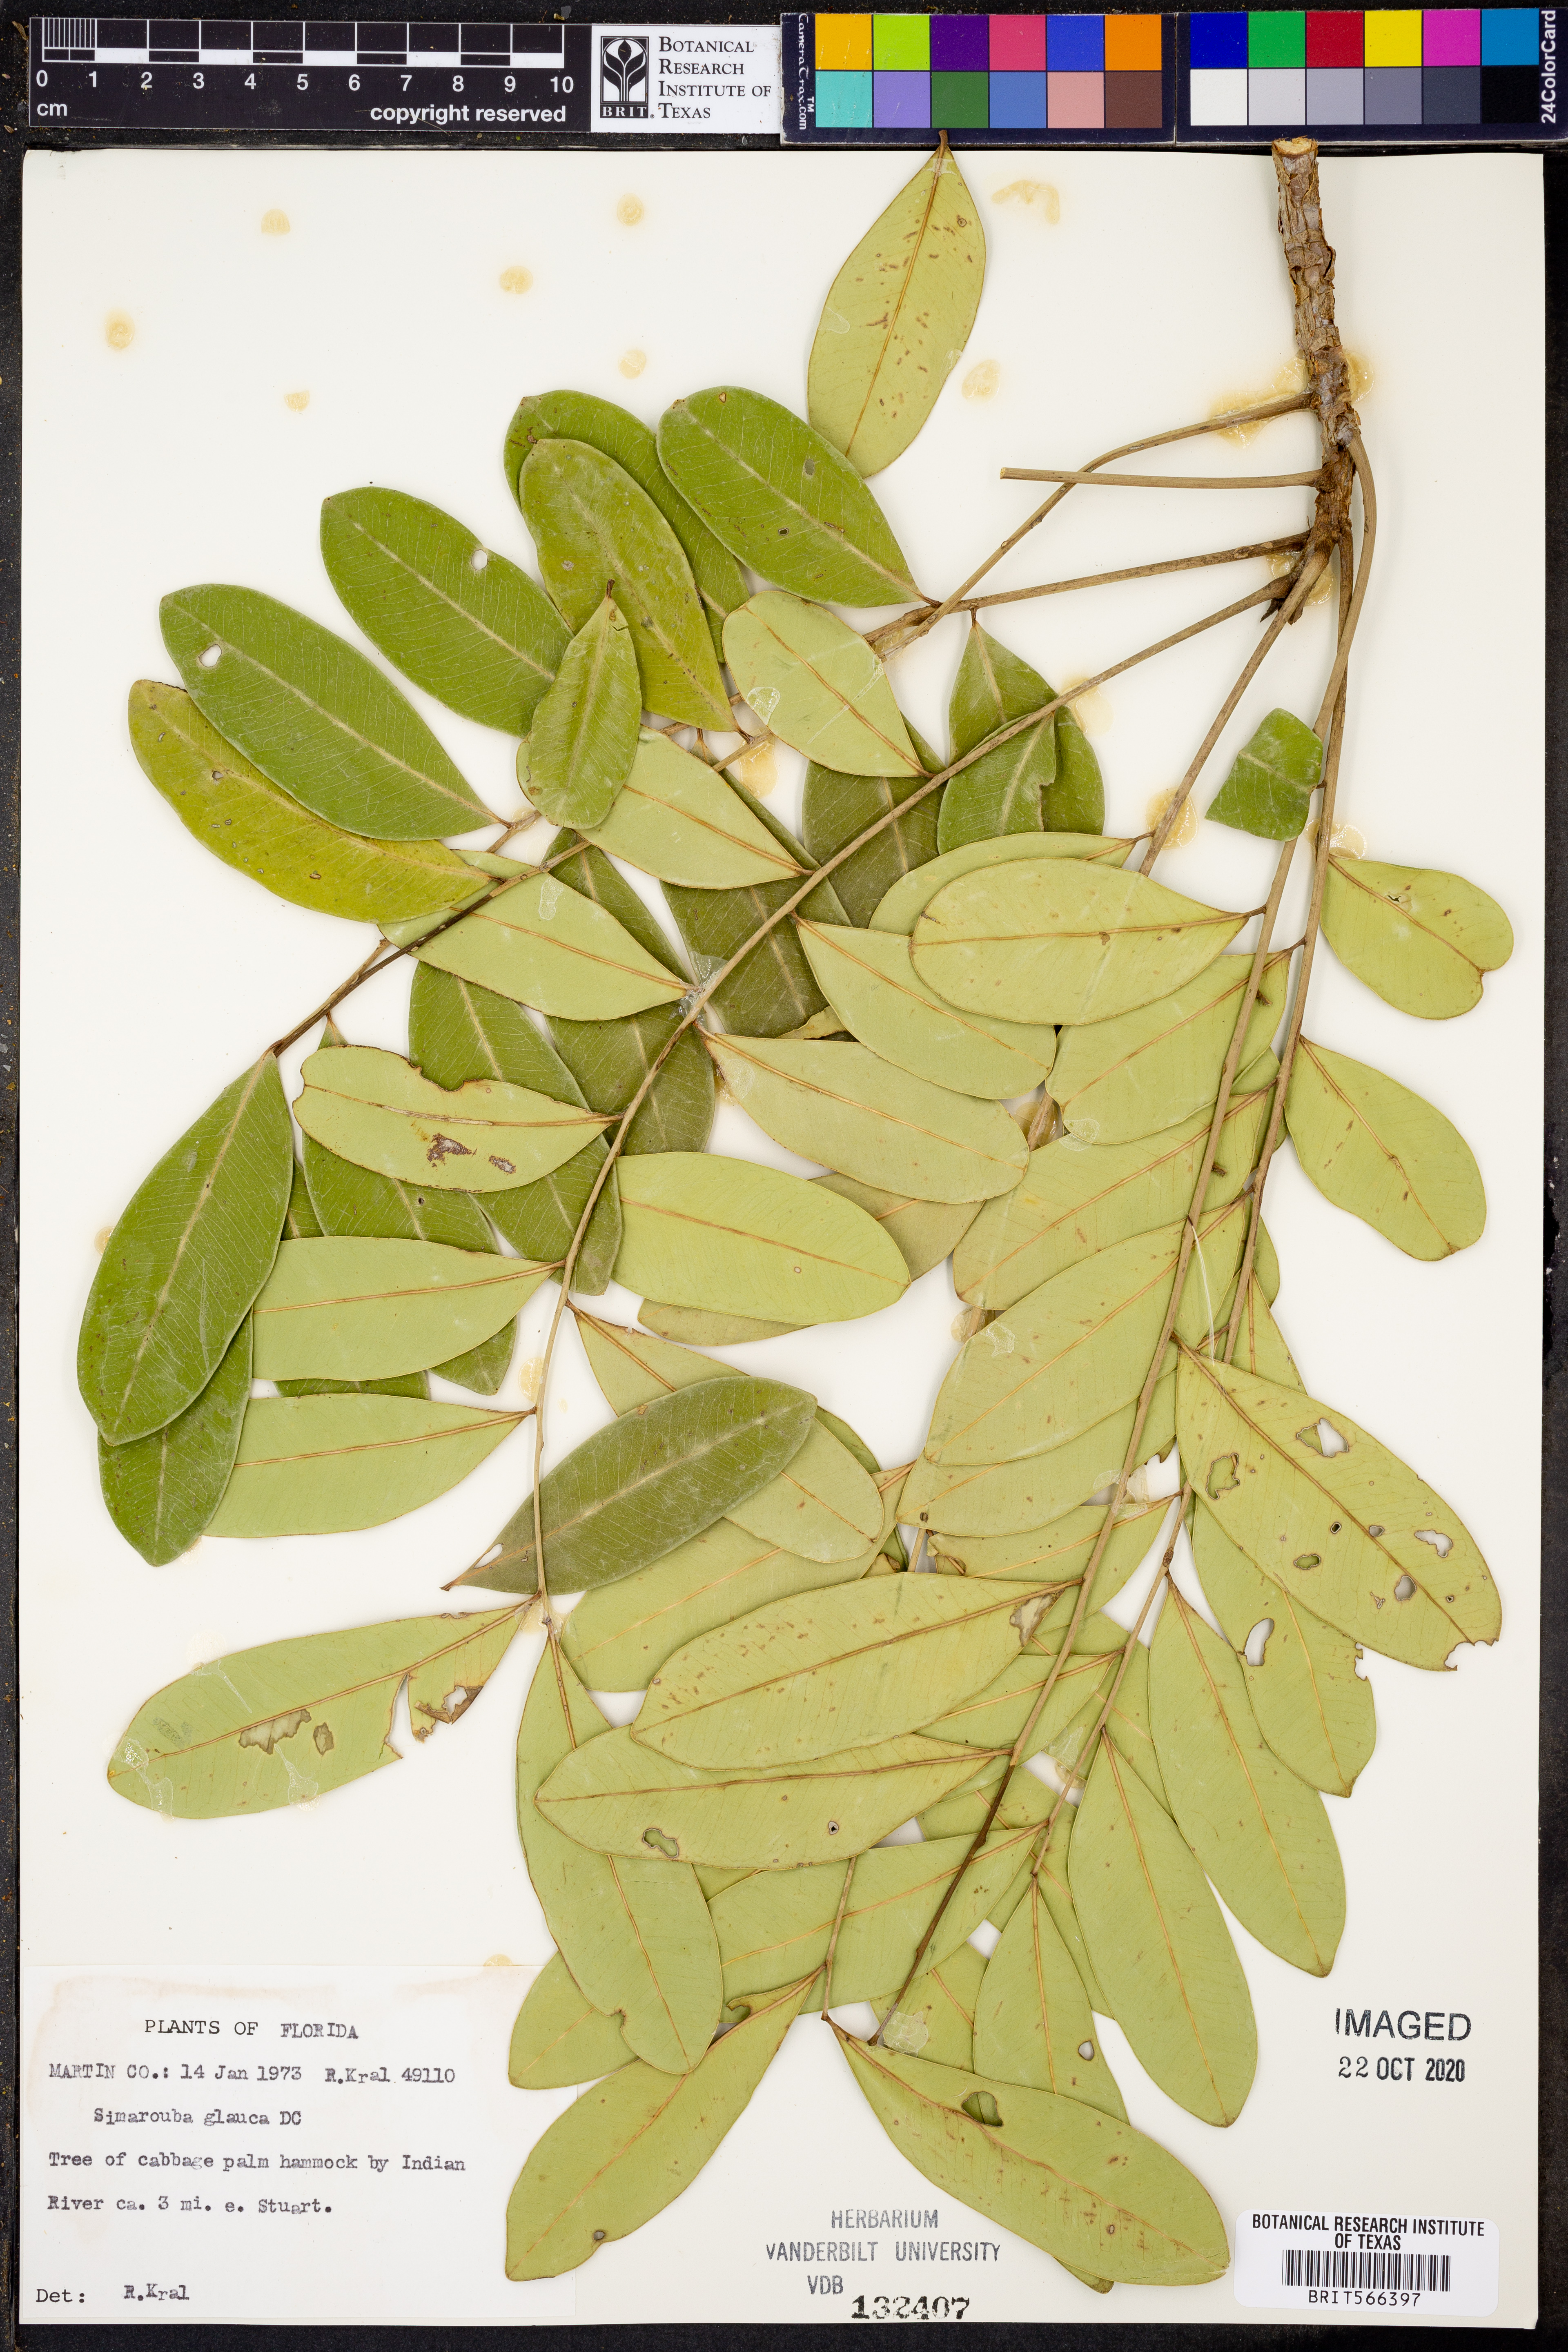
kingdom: Plantae
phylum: Tracheophyta
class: Magnoliopsida
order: Sapindales
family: Simaroubaceae
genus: Simarouba
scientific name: Simarouba glauca
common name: Dysentery-bark
